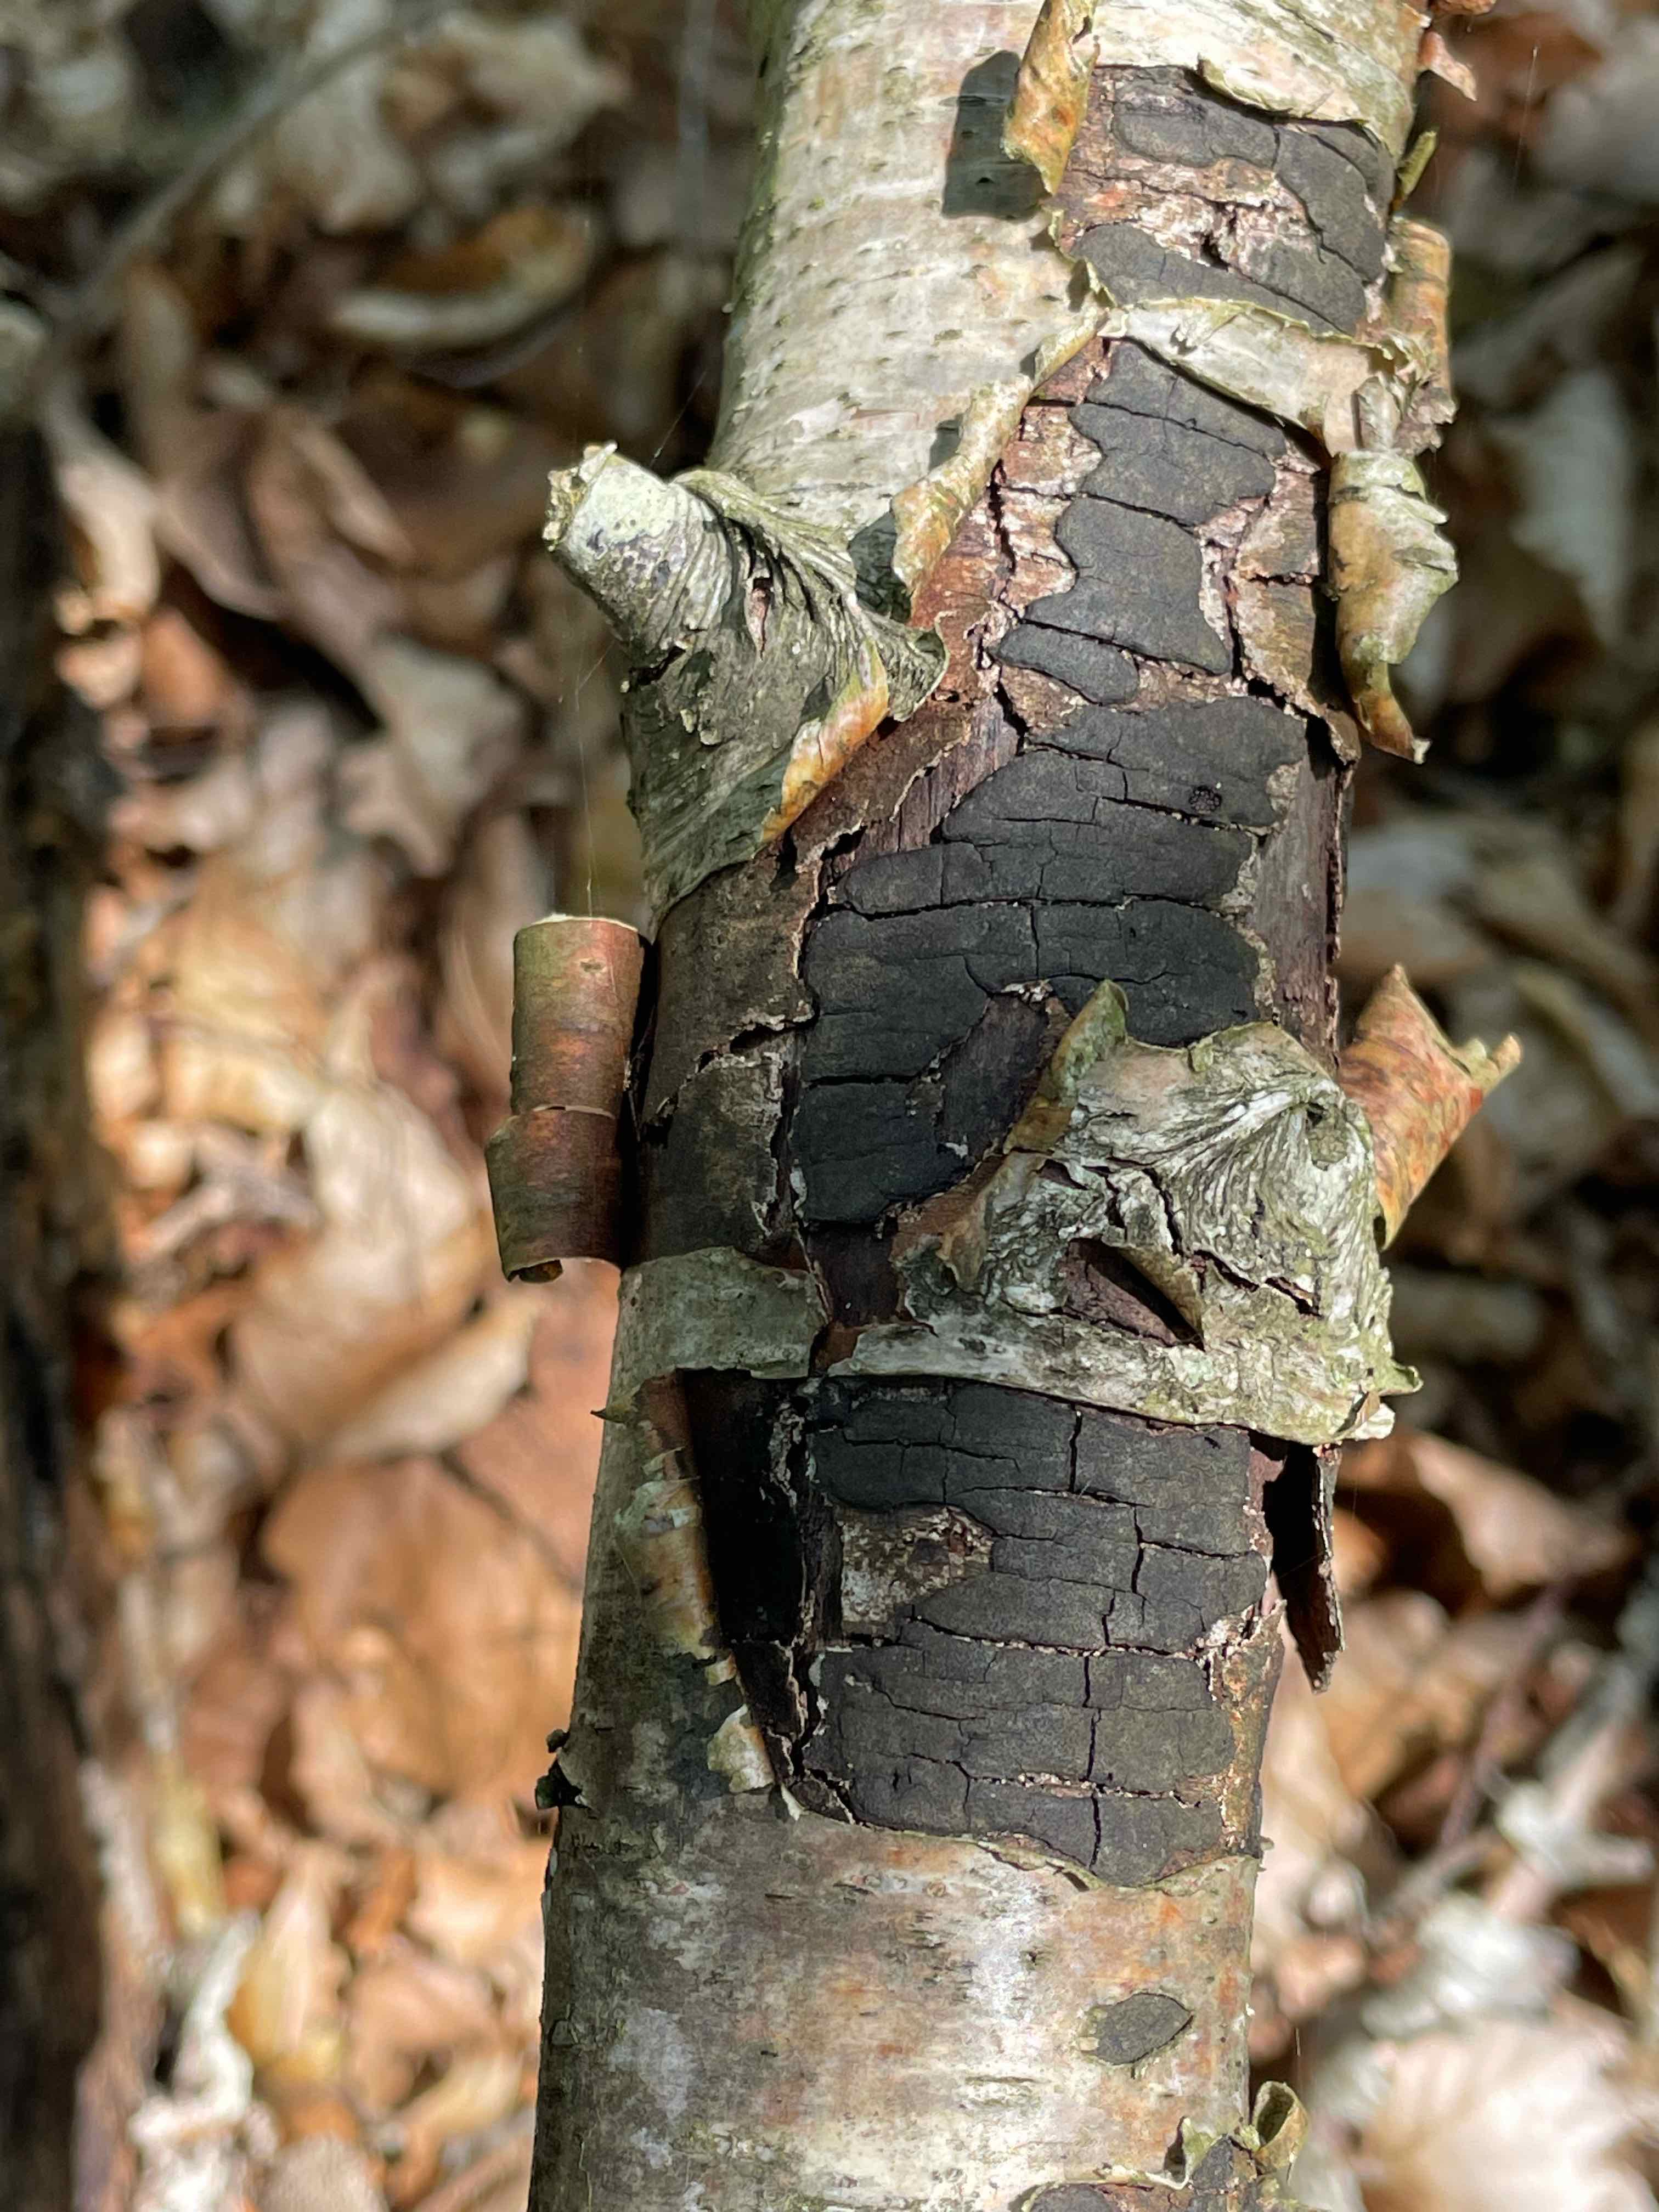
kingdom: Fungi
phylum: Ascomycota
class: Sordariomycetes
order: Xylariales
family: Diatrypaceae
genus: Diatrype
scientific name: Diatrype
